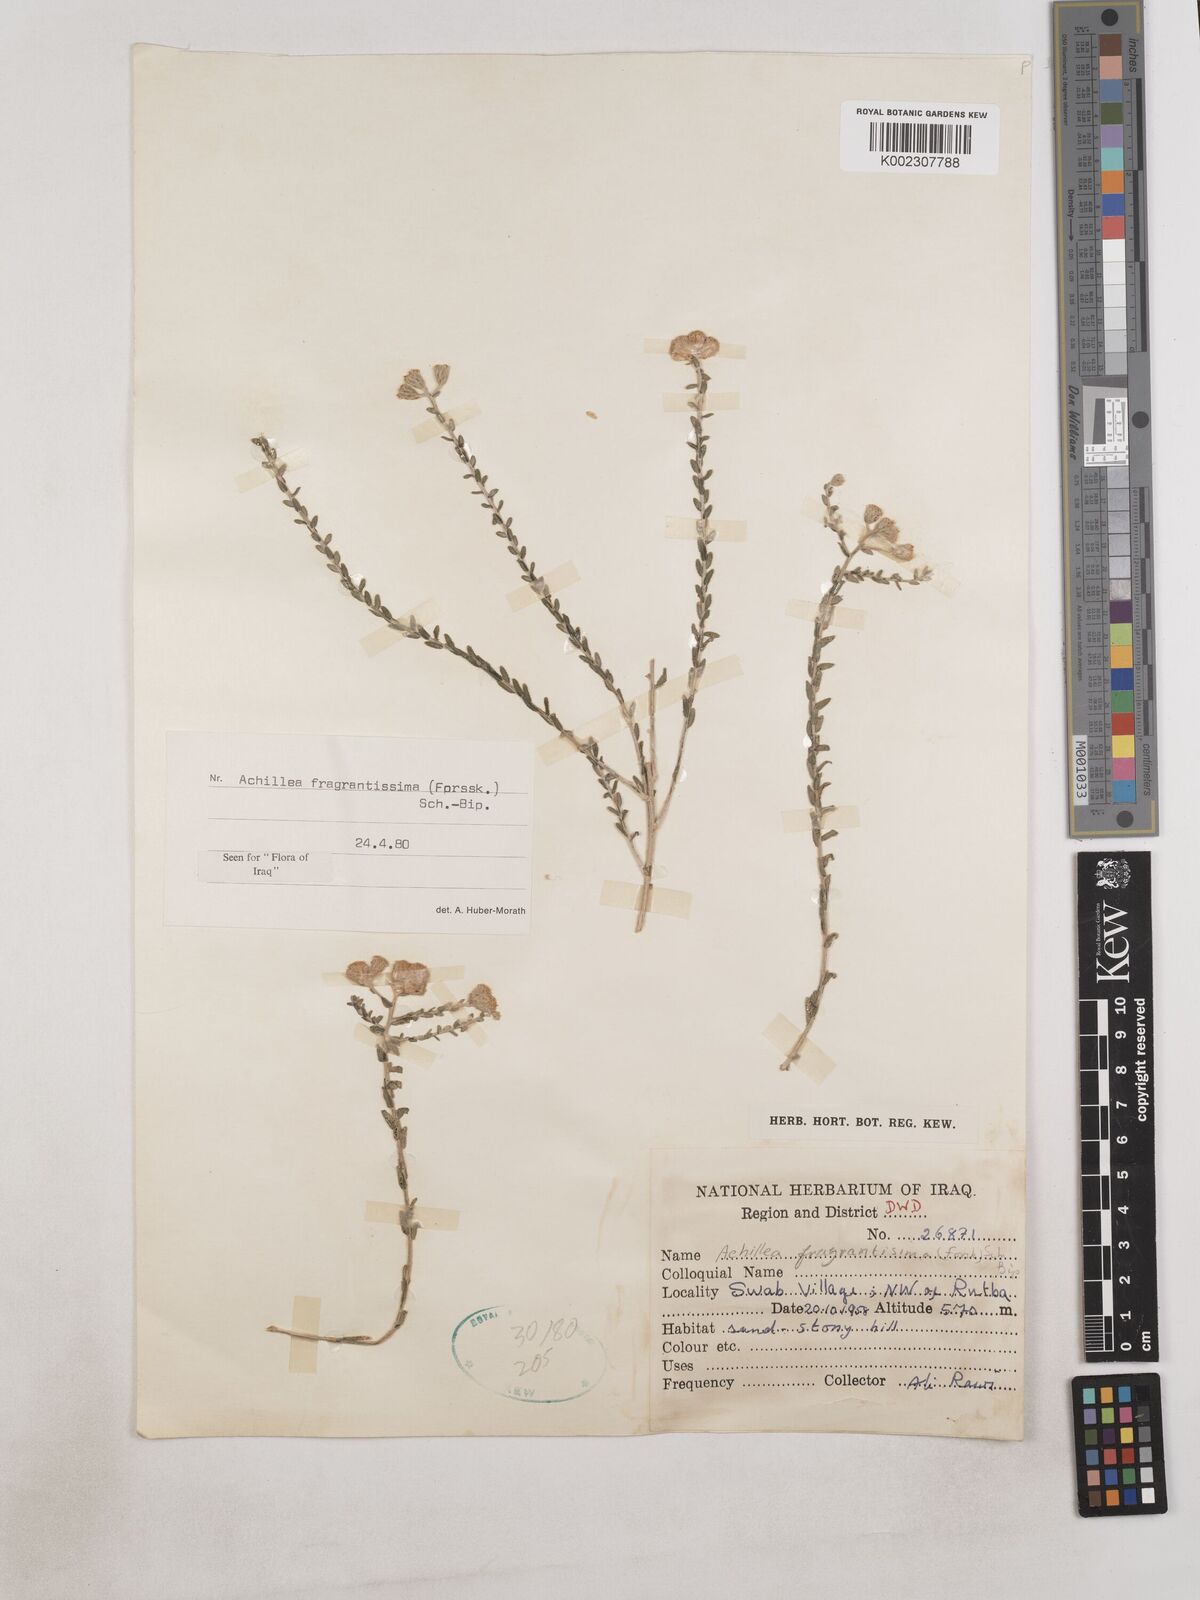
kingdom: Plantae
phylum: Tracheophyta
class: Magnoliopsida
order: Asterales
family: Asteraceae
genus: Achillea
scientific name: Achillea fragrantissima
